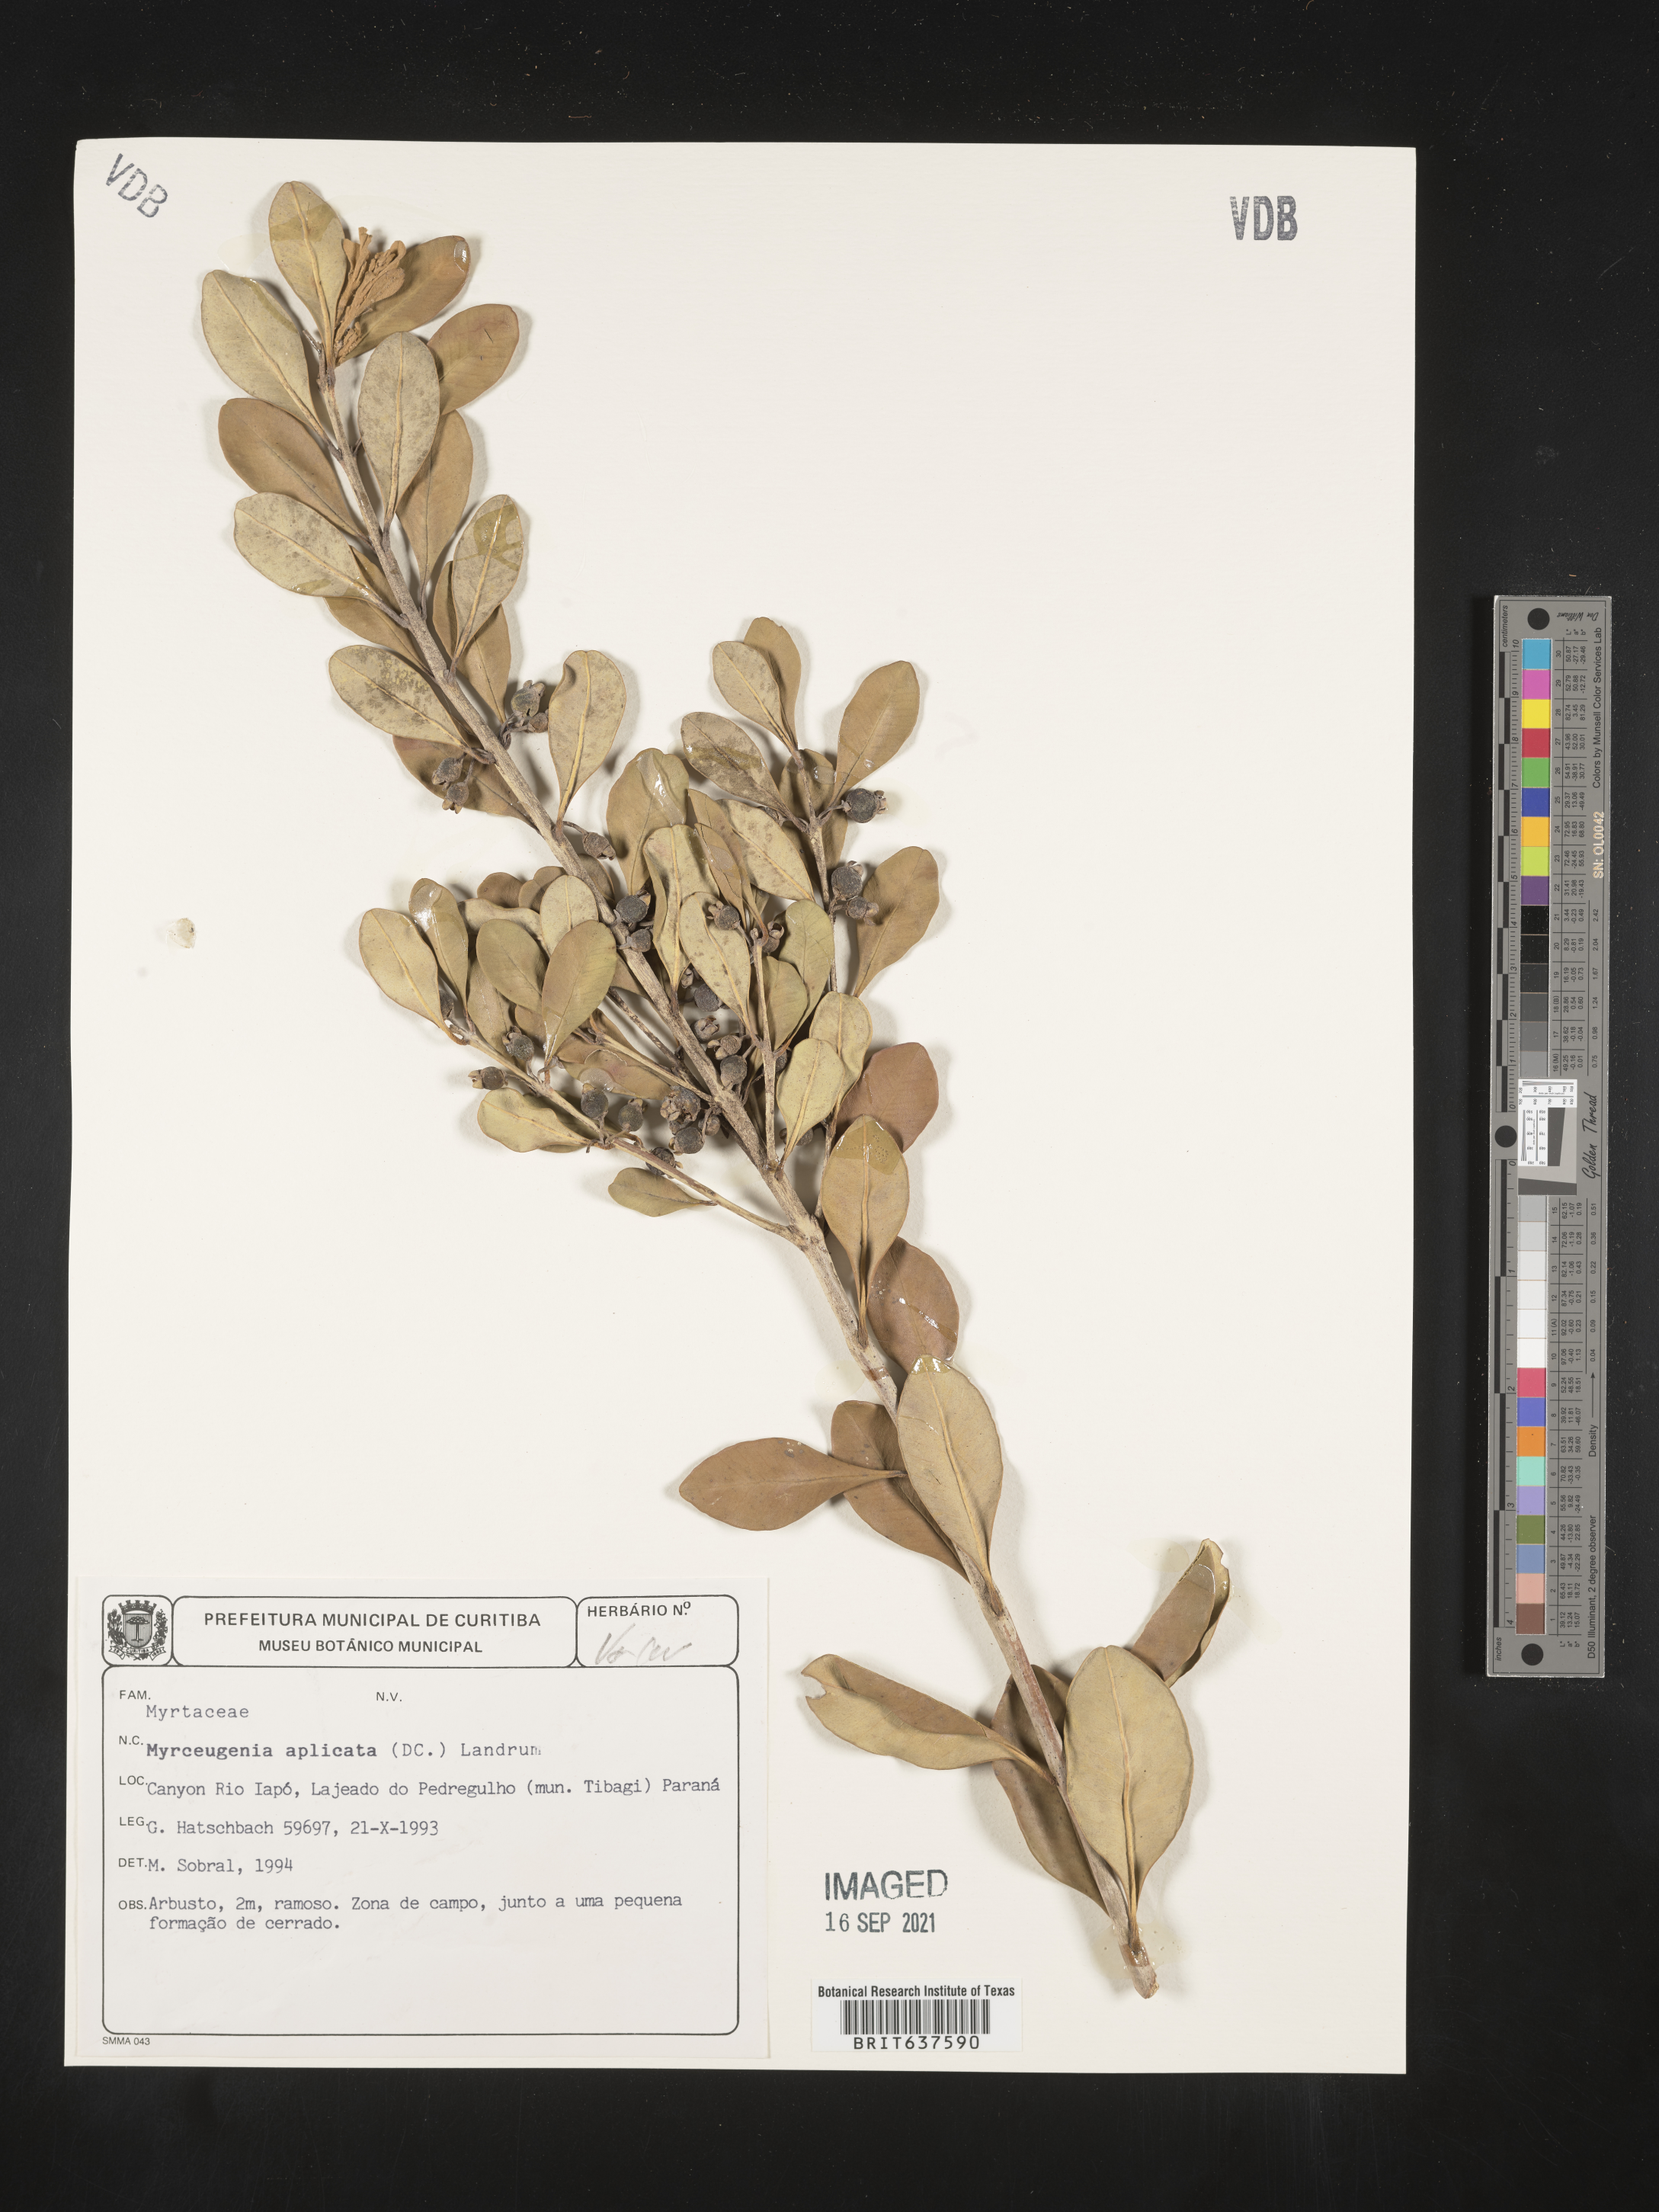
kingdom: Plantae
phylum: Tracheophyta
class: Magnoliopsida
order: Myrtales
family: Myrtaceae
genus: Myrceugenia
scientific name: Myrceugenia
